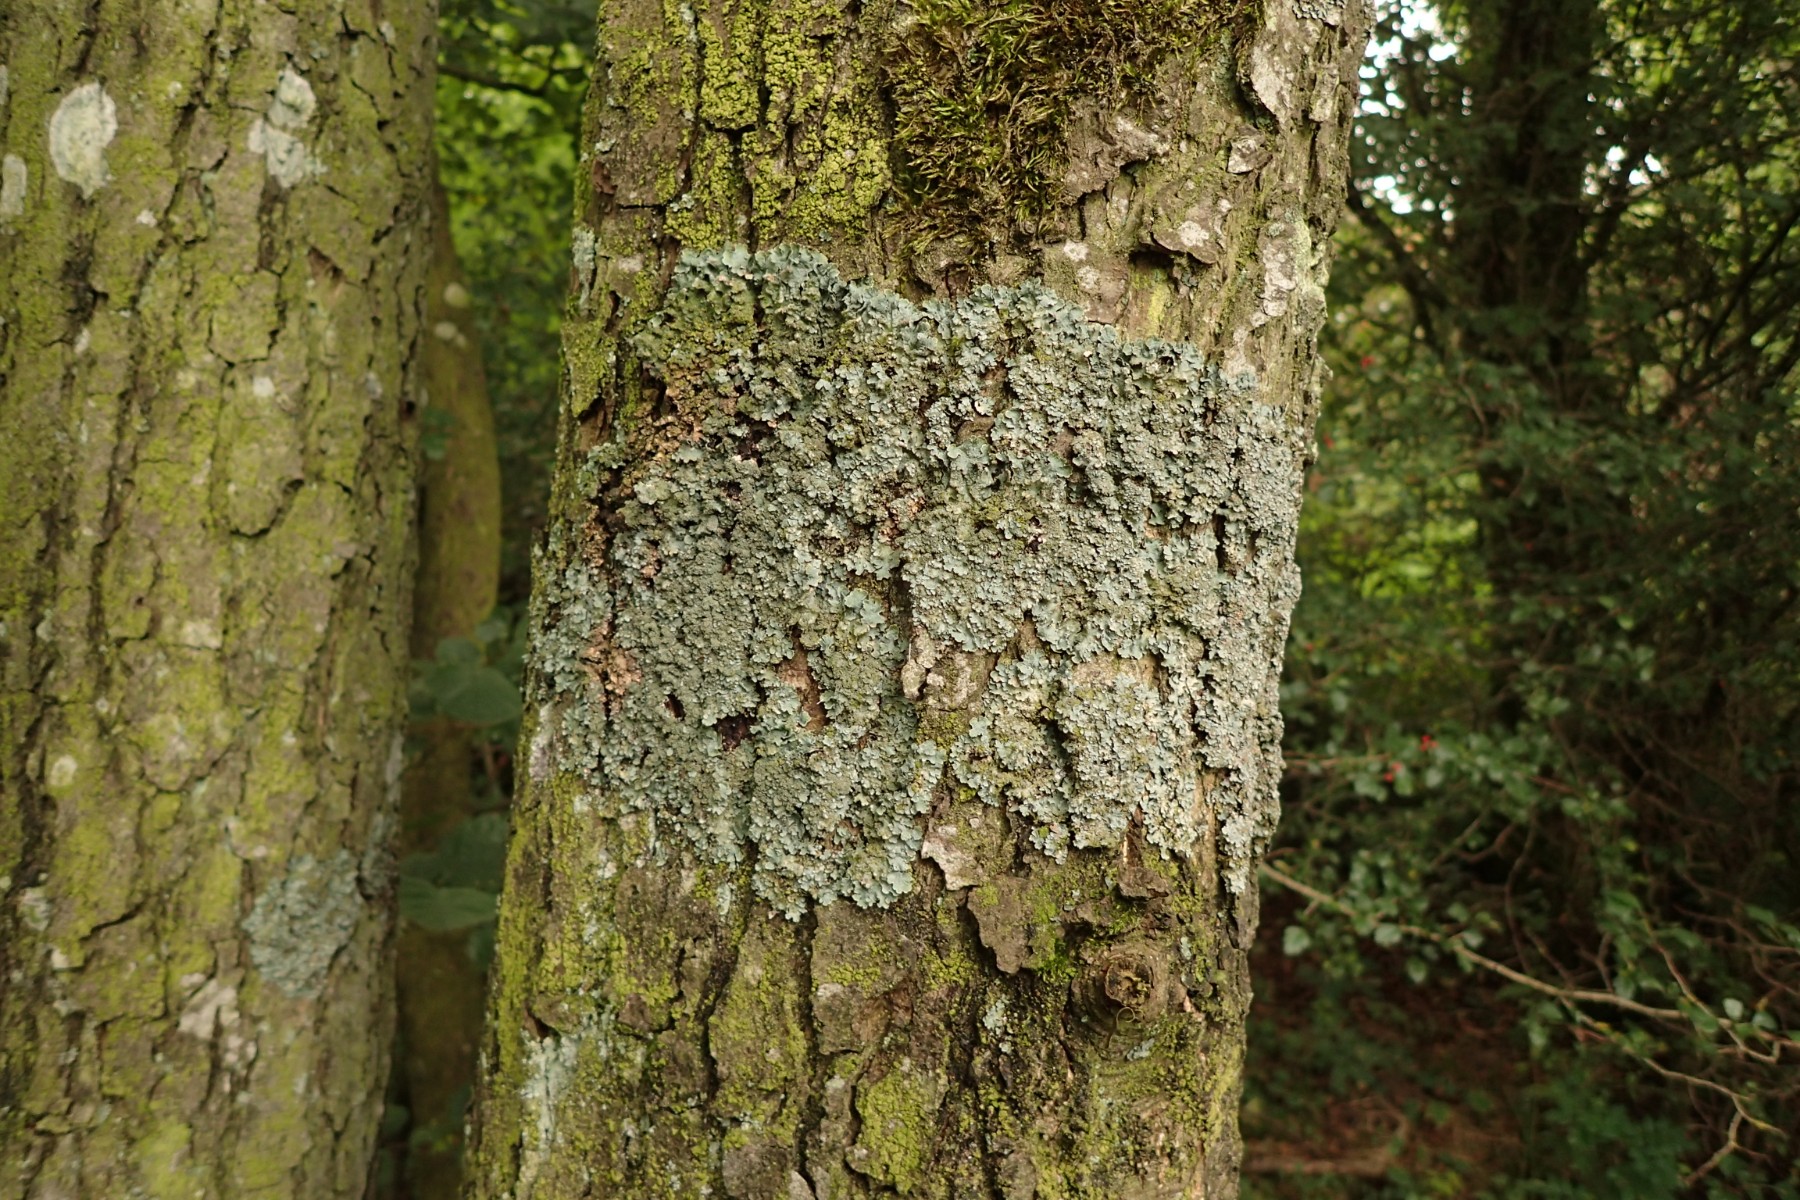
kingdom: Fungi
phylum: Ascomycota
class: Lecanoromycetes
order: Lecanorales
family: Parmeliaceae
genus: Parmelia
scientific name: Parmelia ernstiae
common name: rimstift-skållav
